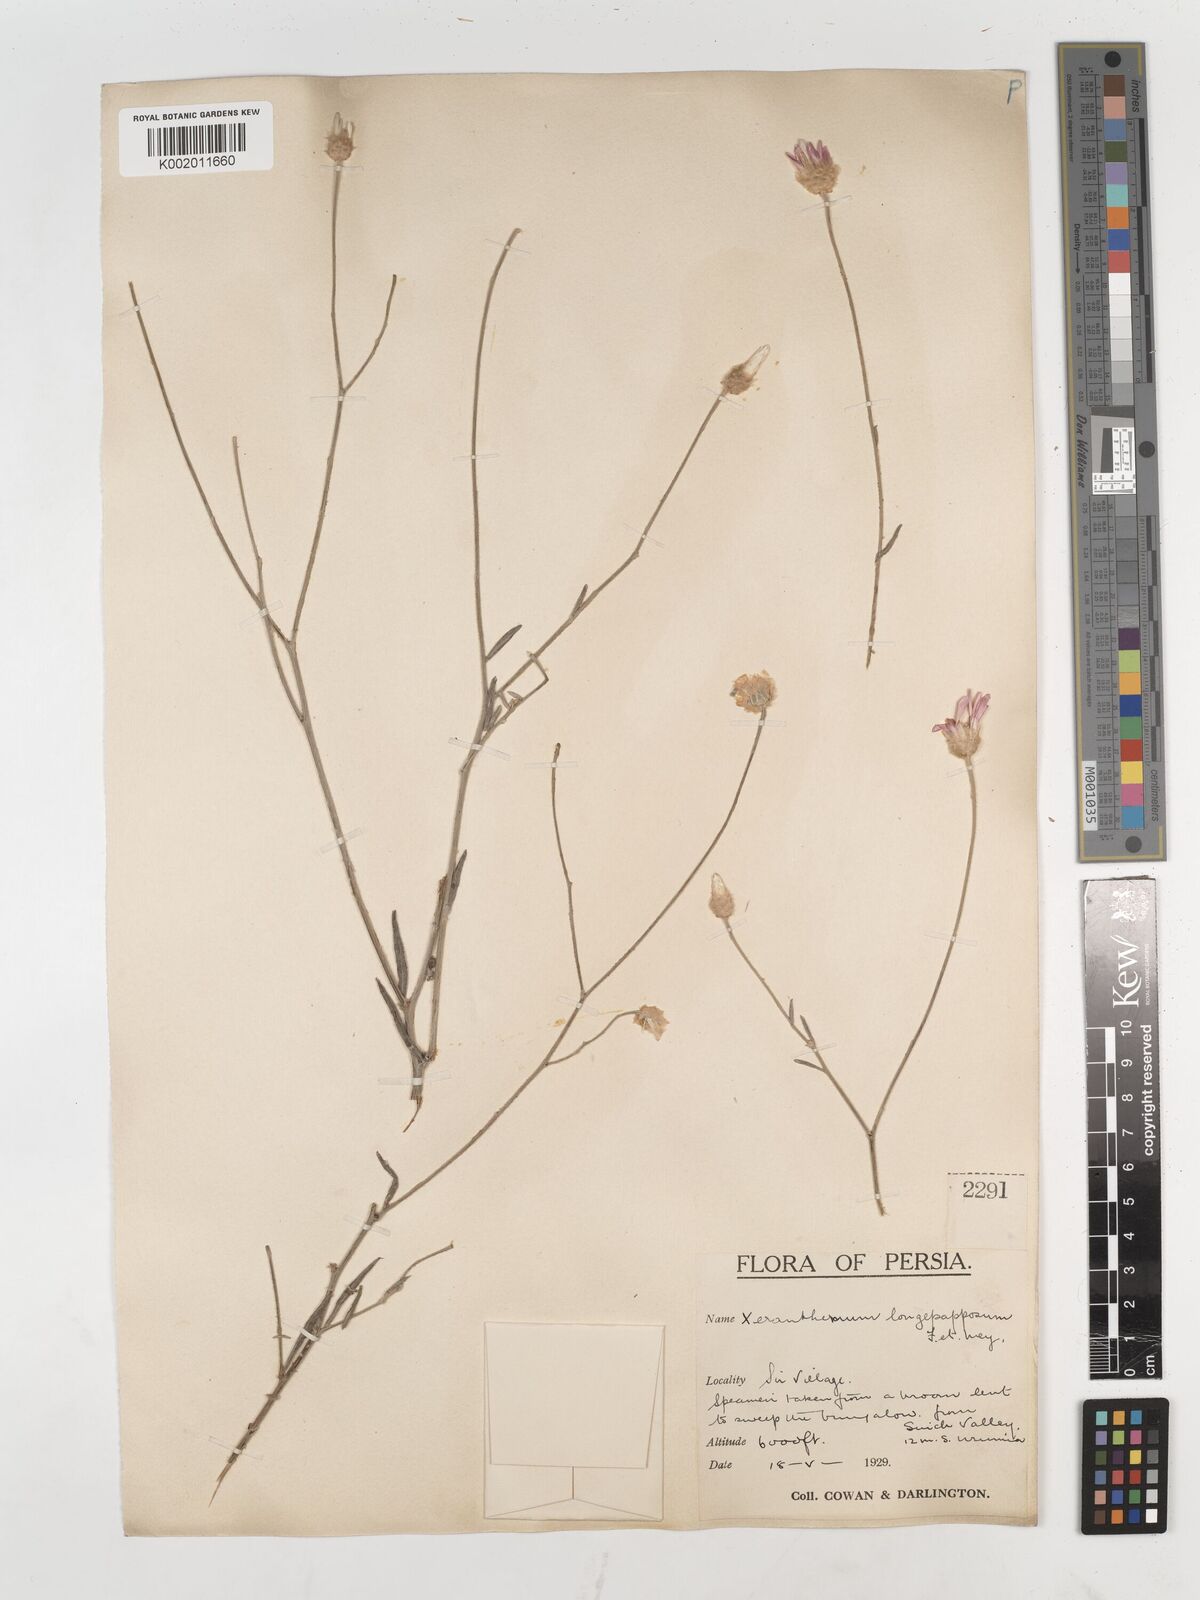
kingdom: Plantae
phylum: Tracheophyta
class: Magnoliopsida
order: Asterales
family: Asteraceae
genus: Xeranthemum
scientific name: Xeranthemum squarrosum
